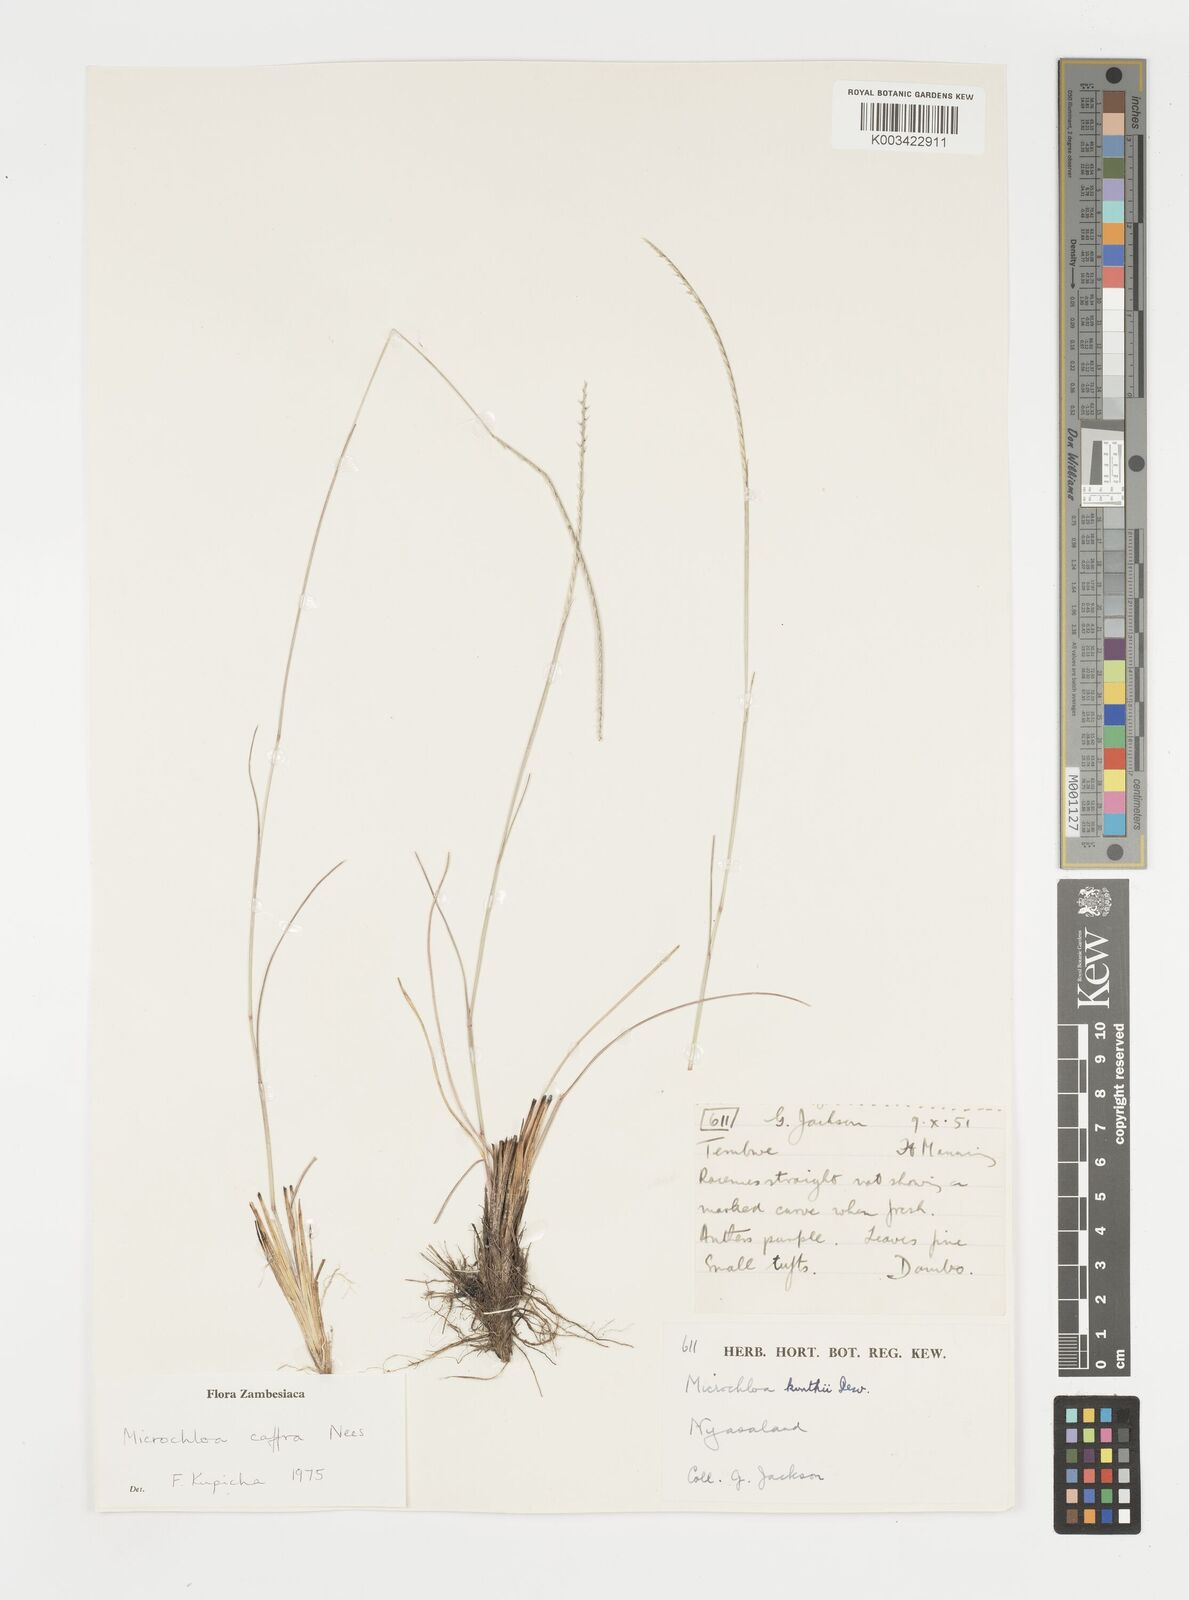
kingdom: Plantae
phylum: Tracheophyta
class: Liliopsida
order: Poales
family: Poaceae
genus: Microchloa
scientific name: Microchloa caffra
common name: Pincushion grass
